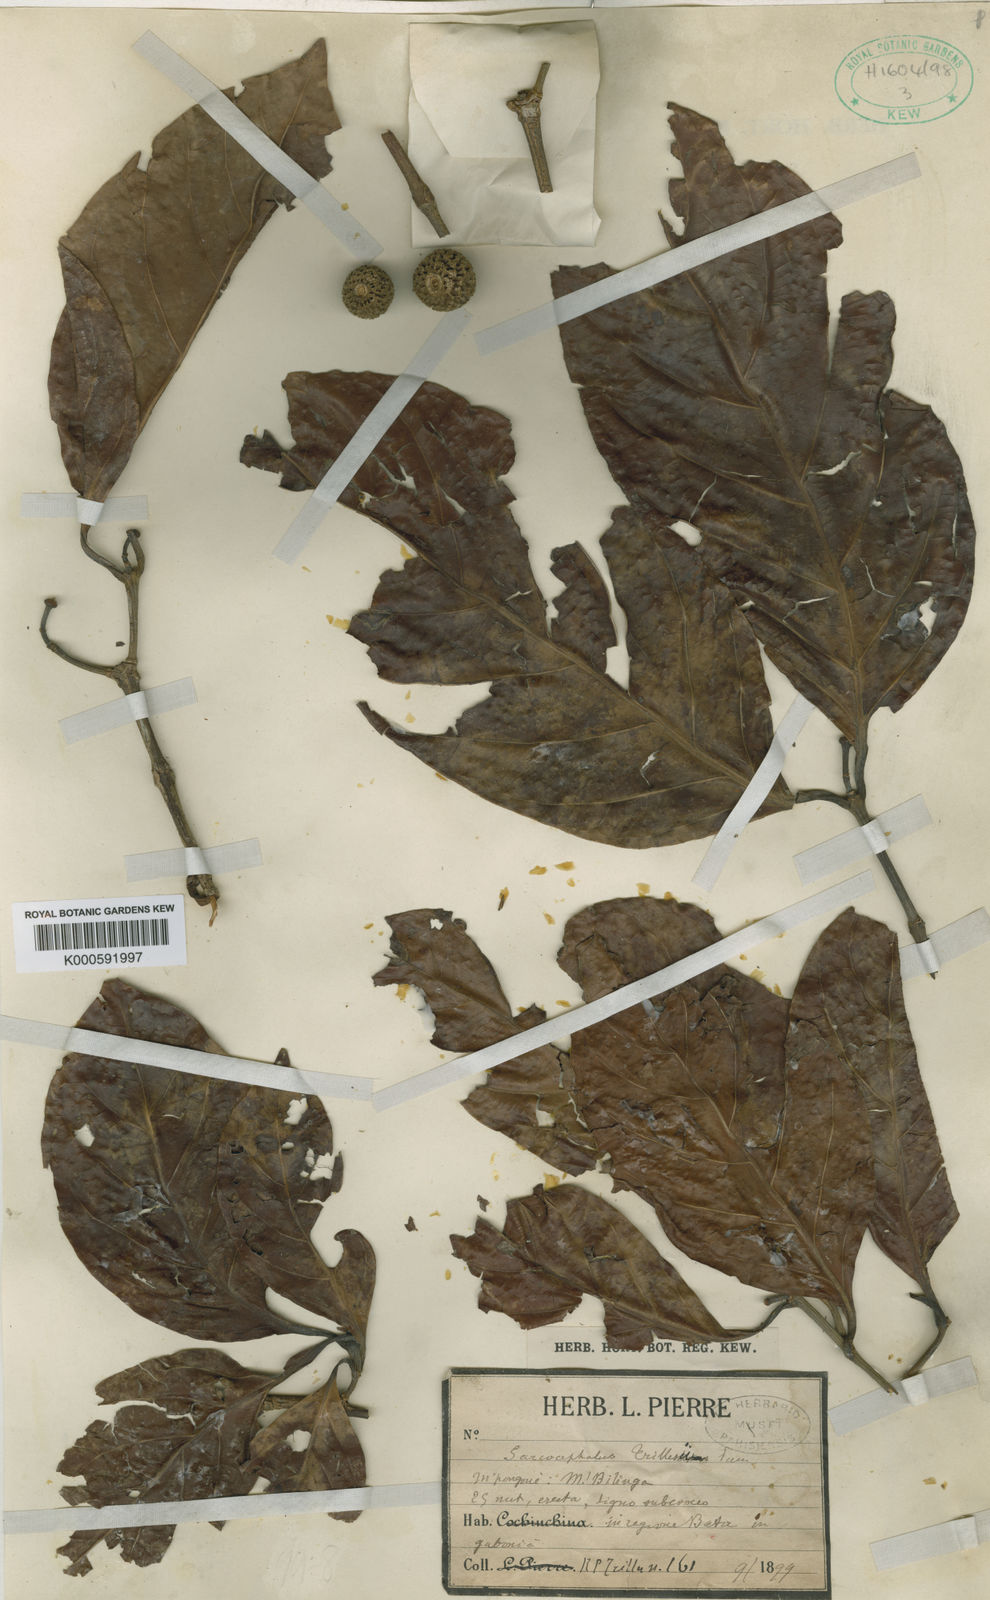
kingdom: Plantae
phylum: Tracheophyta
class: Magnoliopsida
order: Gentianales
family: Rubiaceae
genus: Nauclea
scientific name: Nauclea diderrichii
